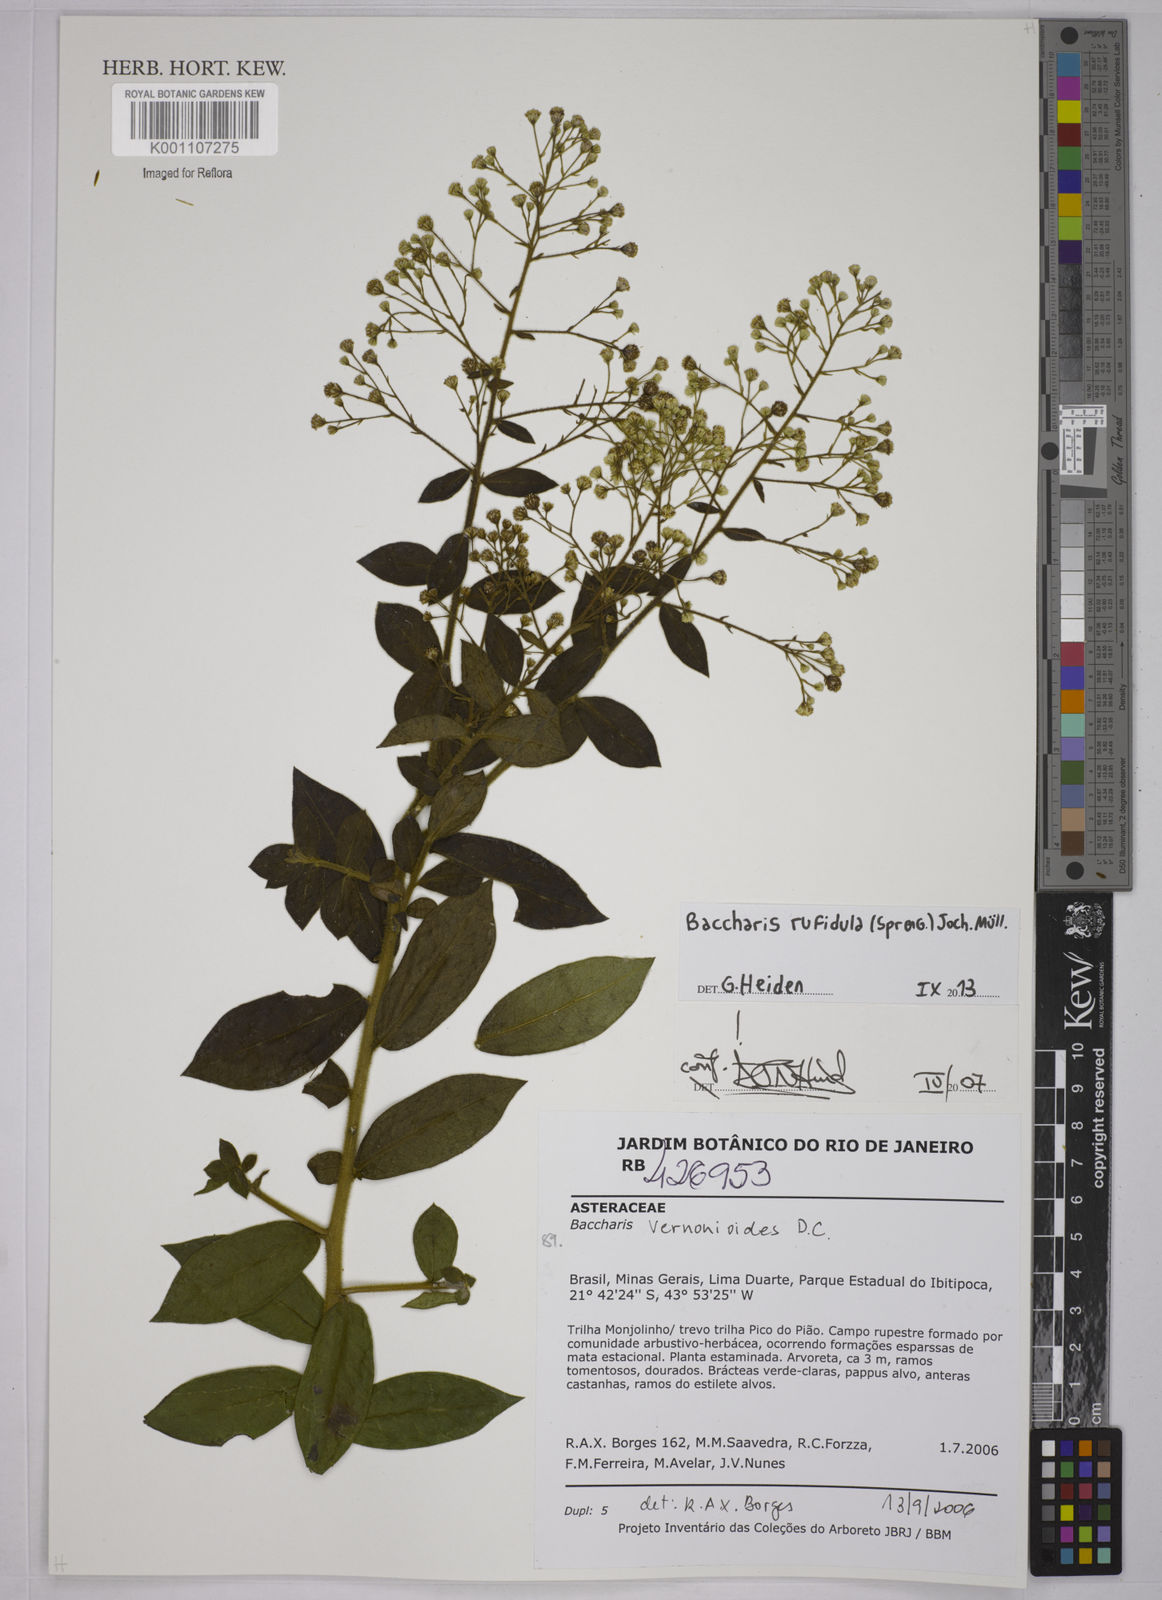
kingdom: Plantae
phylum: Tracheophyta
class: Magnoliopsida
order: Asterales
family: Asteraceae
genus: Baccharis
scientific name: Baccharis
